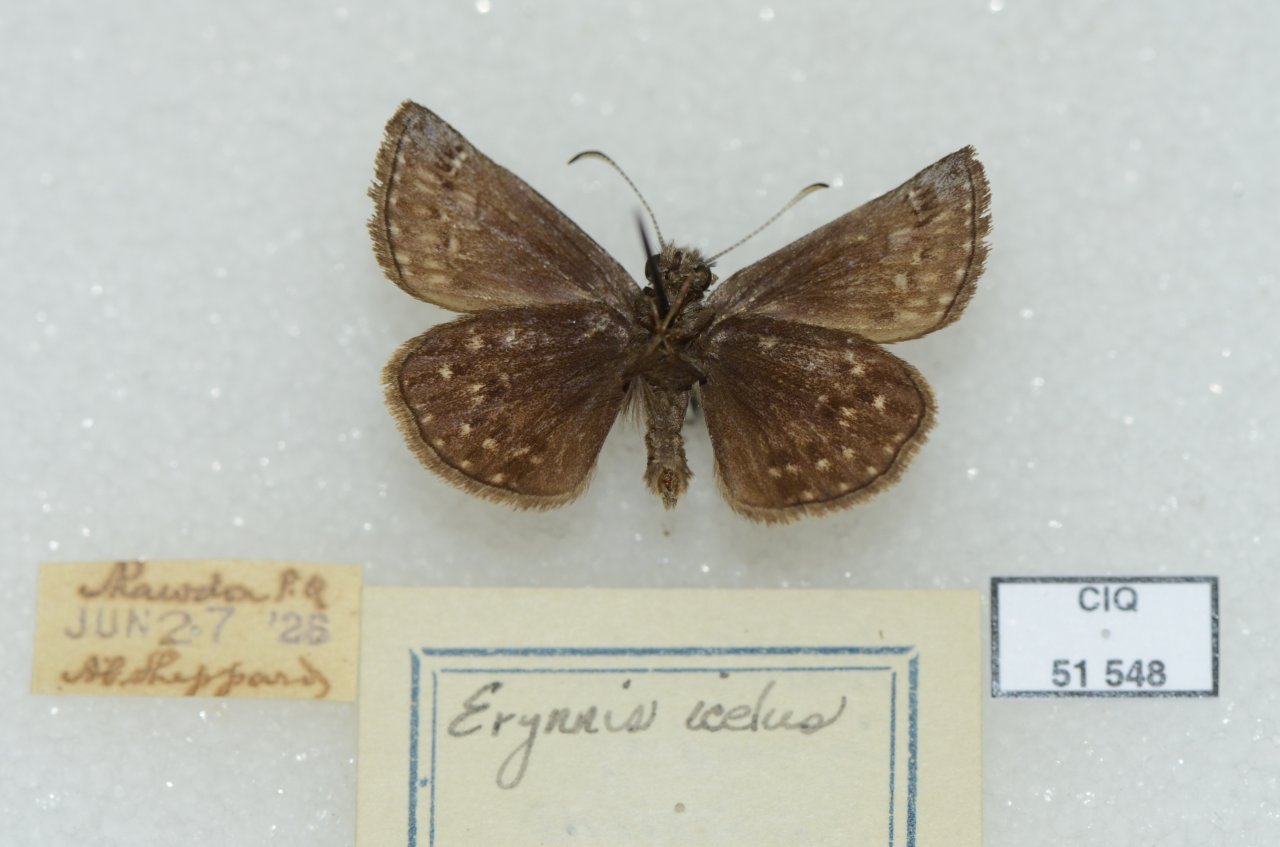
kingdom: Animalia
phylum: Arthropoda
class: Insecta
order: Lepidoptera
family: Hesperiidae
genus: Erynnis
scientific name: Erynnis icelus
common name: Dreamy Duskywing
